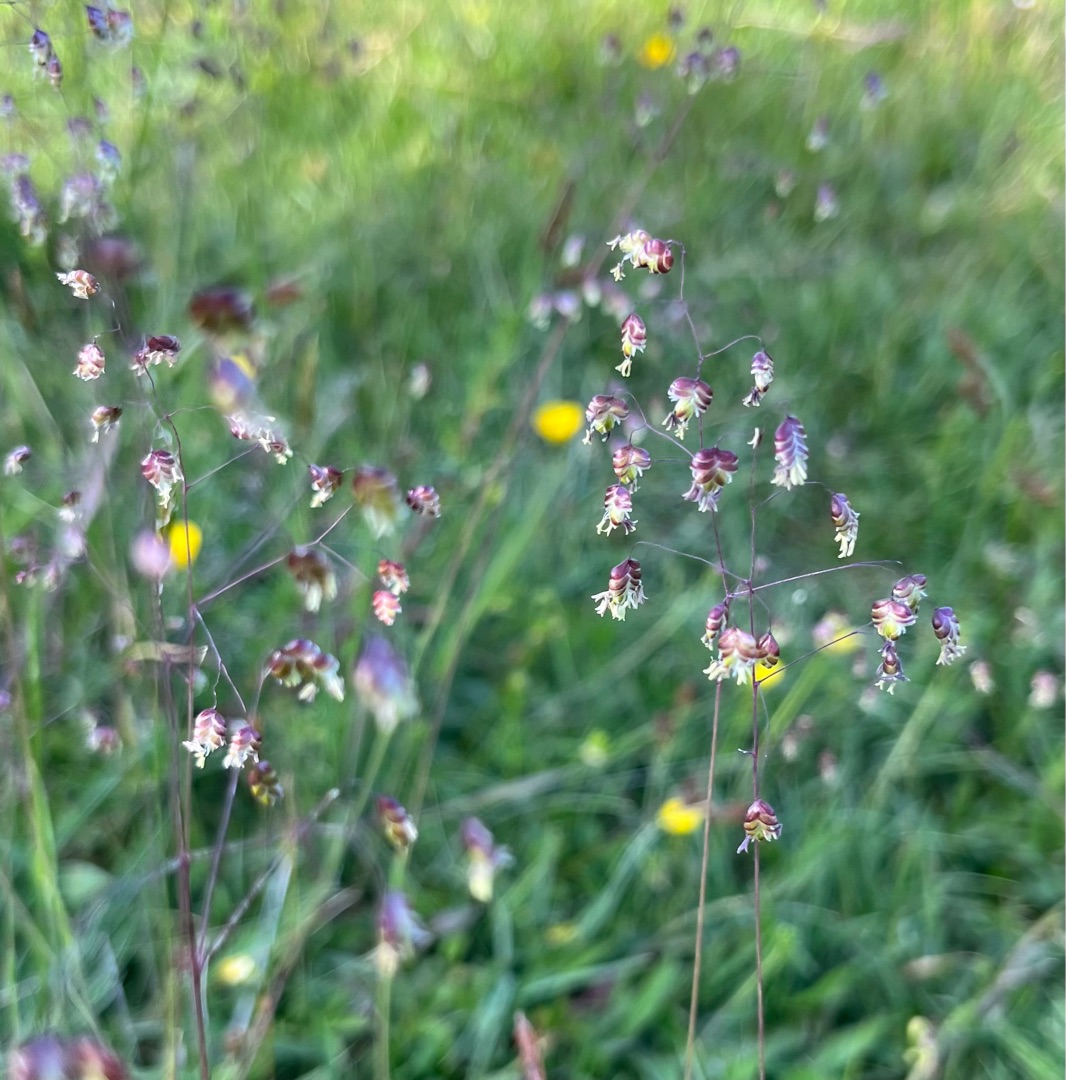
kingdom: Plantae
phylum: Tracheophyta
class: Liliopsida
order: Poales
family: Poaceae
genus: Briza
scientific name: Briza media
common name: Hjertegræs
